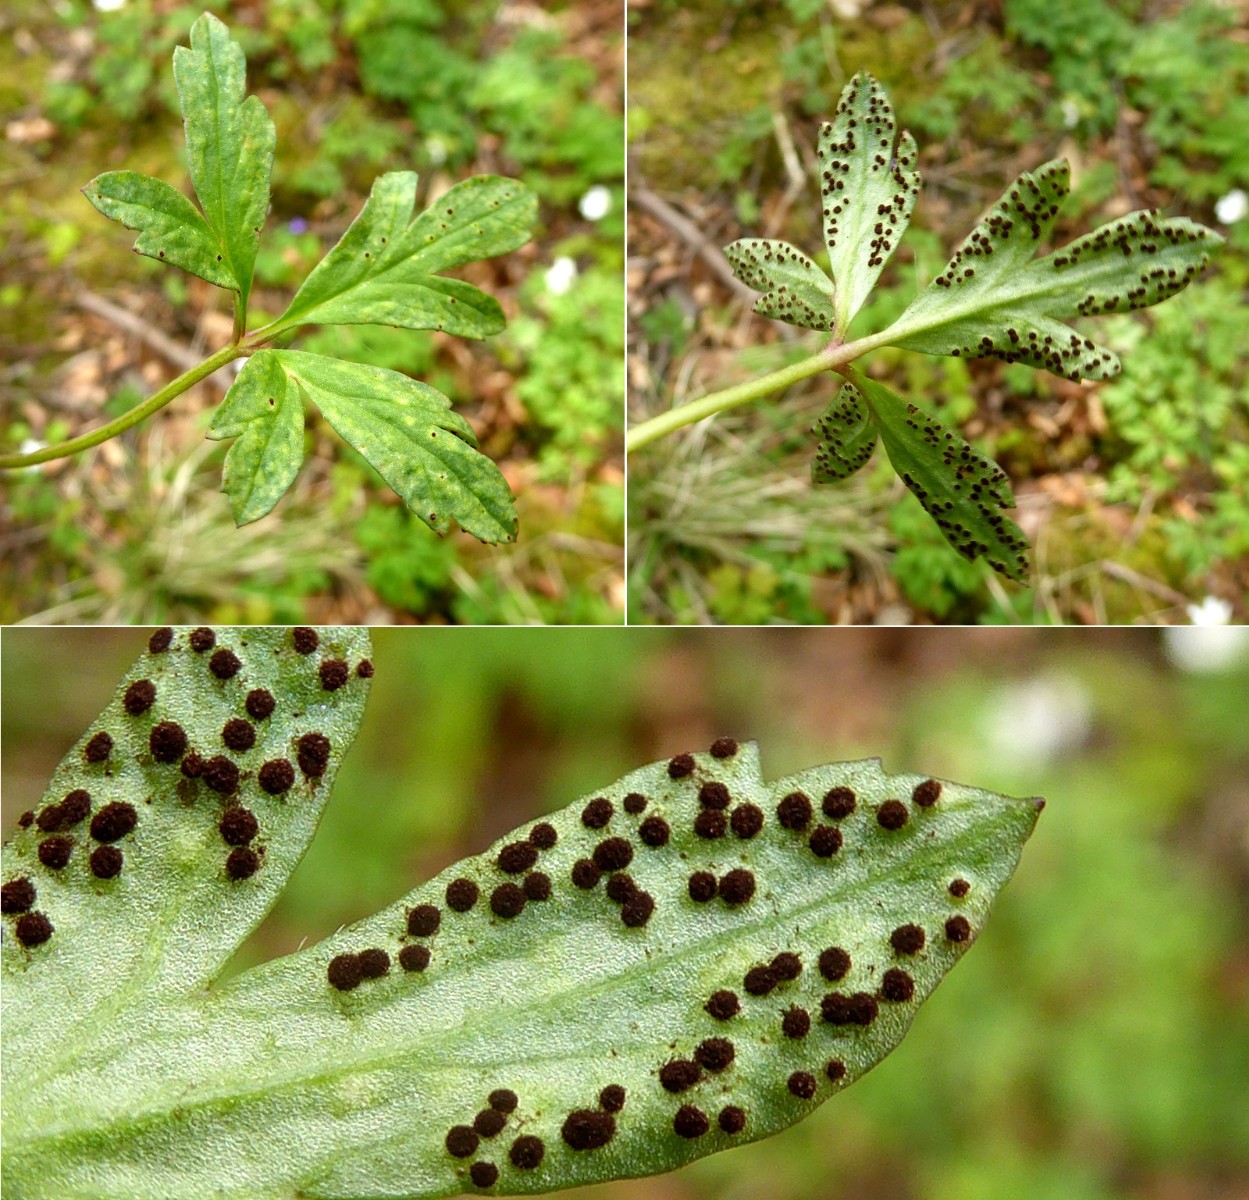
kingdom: Fungi
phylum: Basidiomycota
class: Pucciniomycetes
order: Pucciniales
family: Tranzscheliaceae
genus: Tranzschelia
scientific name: Tranzschelia anemones
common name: anemone-knæksporerust
